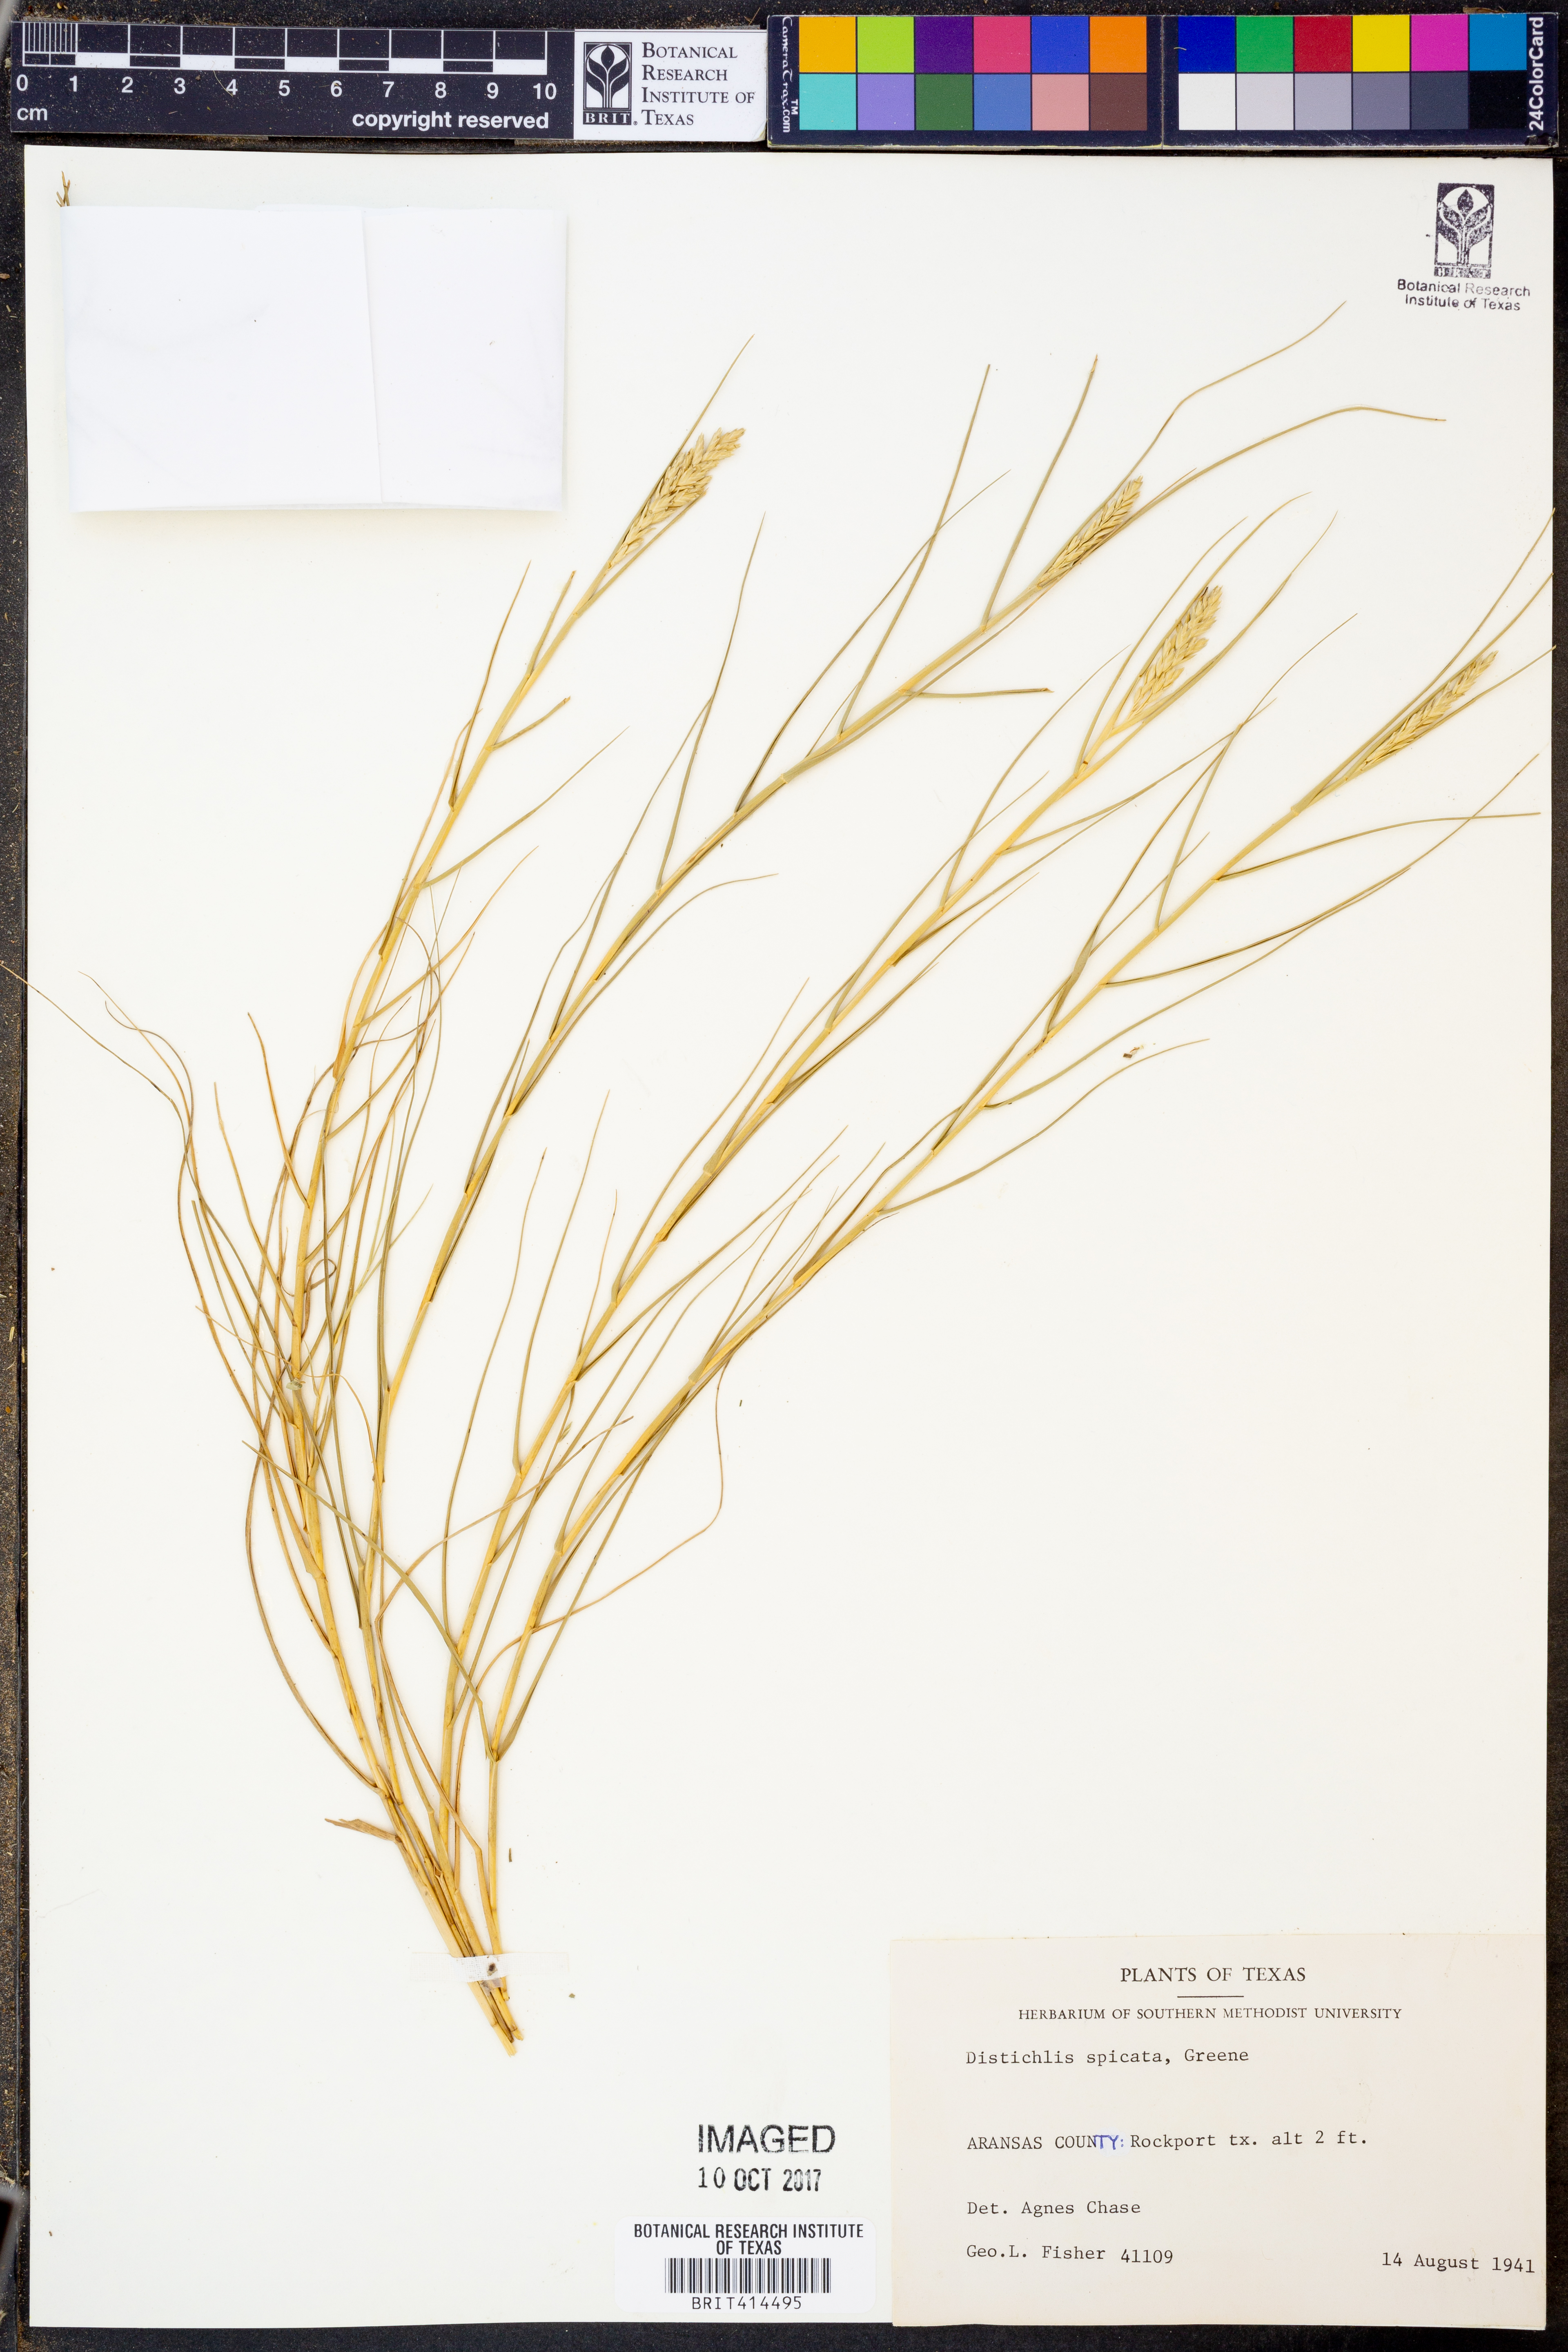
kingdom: Plantae
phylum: Tracheophyta
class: Liliopsida
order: Poales
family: Poaceae
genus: Distichlis
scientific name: Distichlis spicata
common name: Saltgrass
